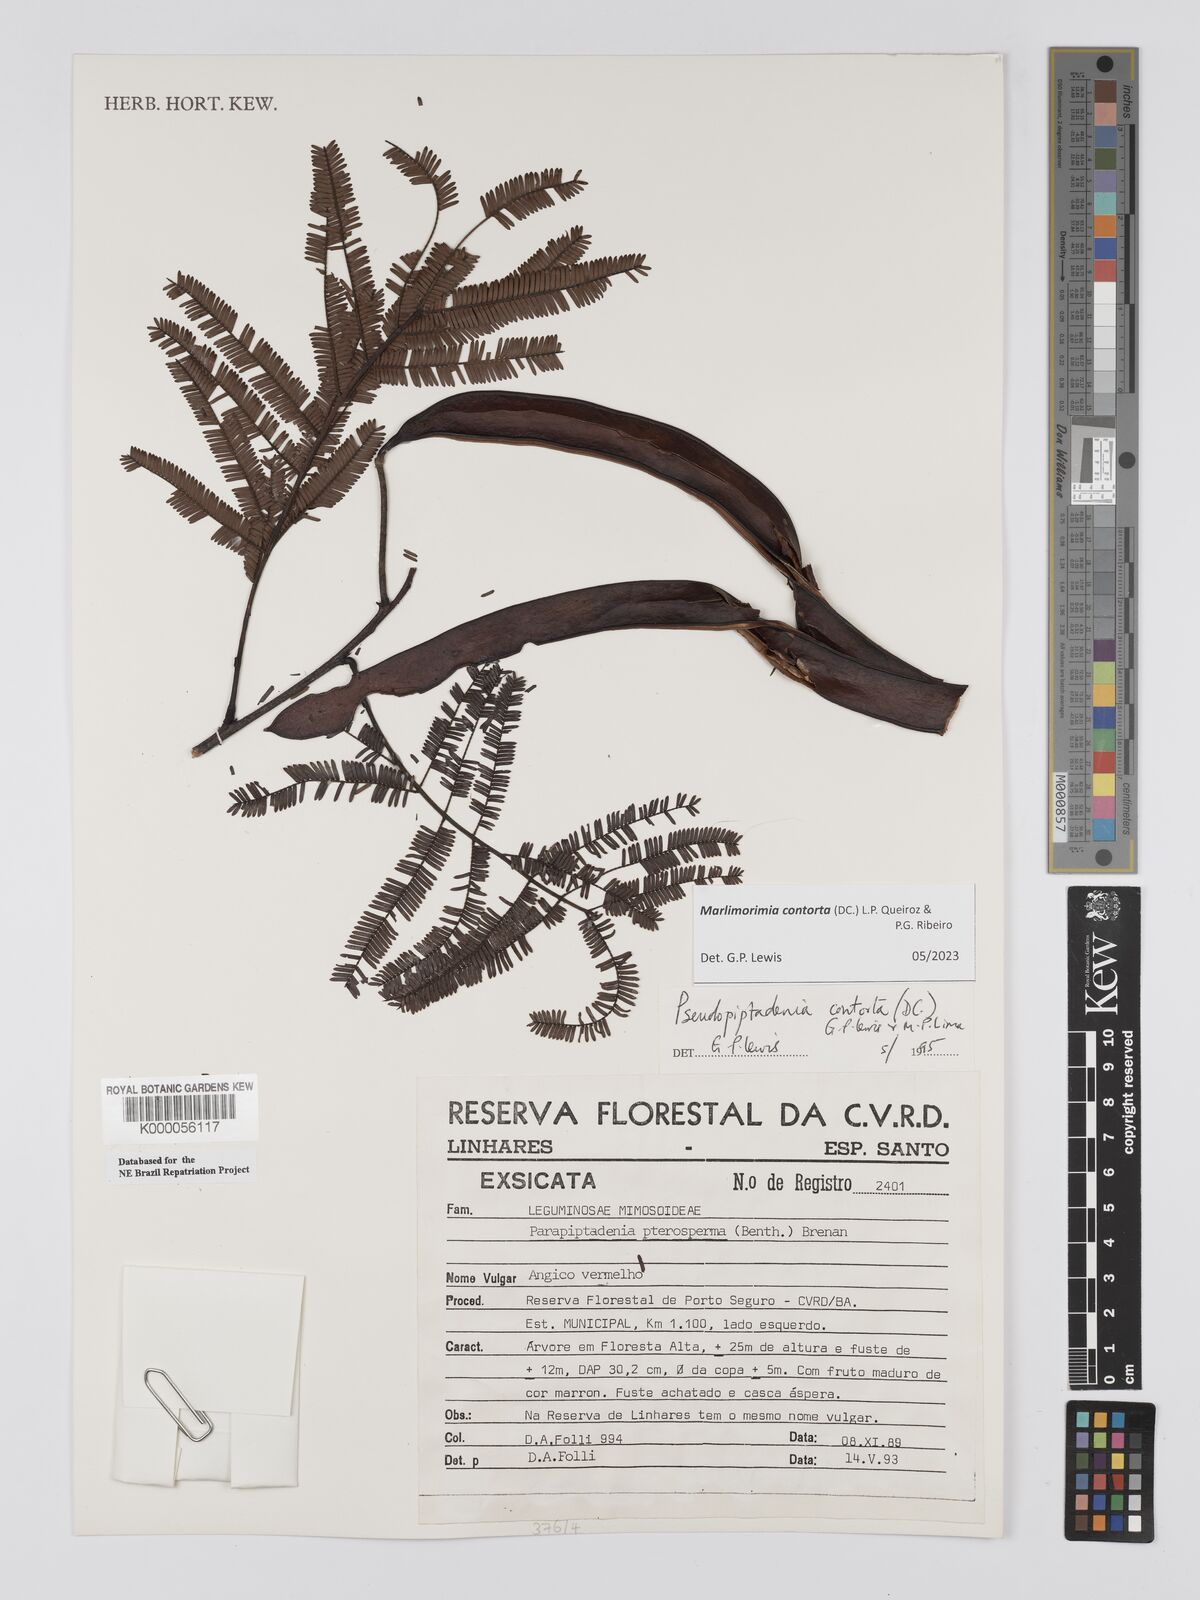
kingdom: Plantae
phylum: Tracheophyta
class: Magnoliopsida
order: Fabales
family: Fabaceae
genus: Pseudopiptadenia
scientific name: Pseudopiptadenia contorta
